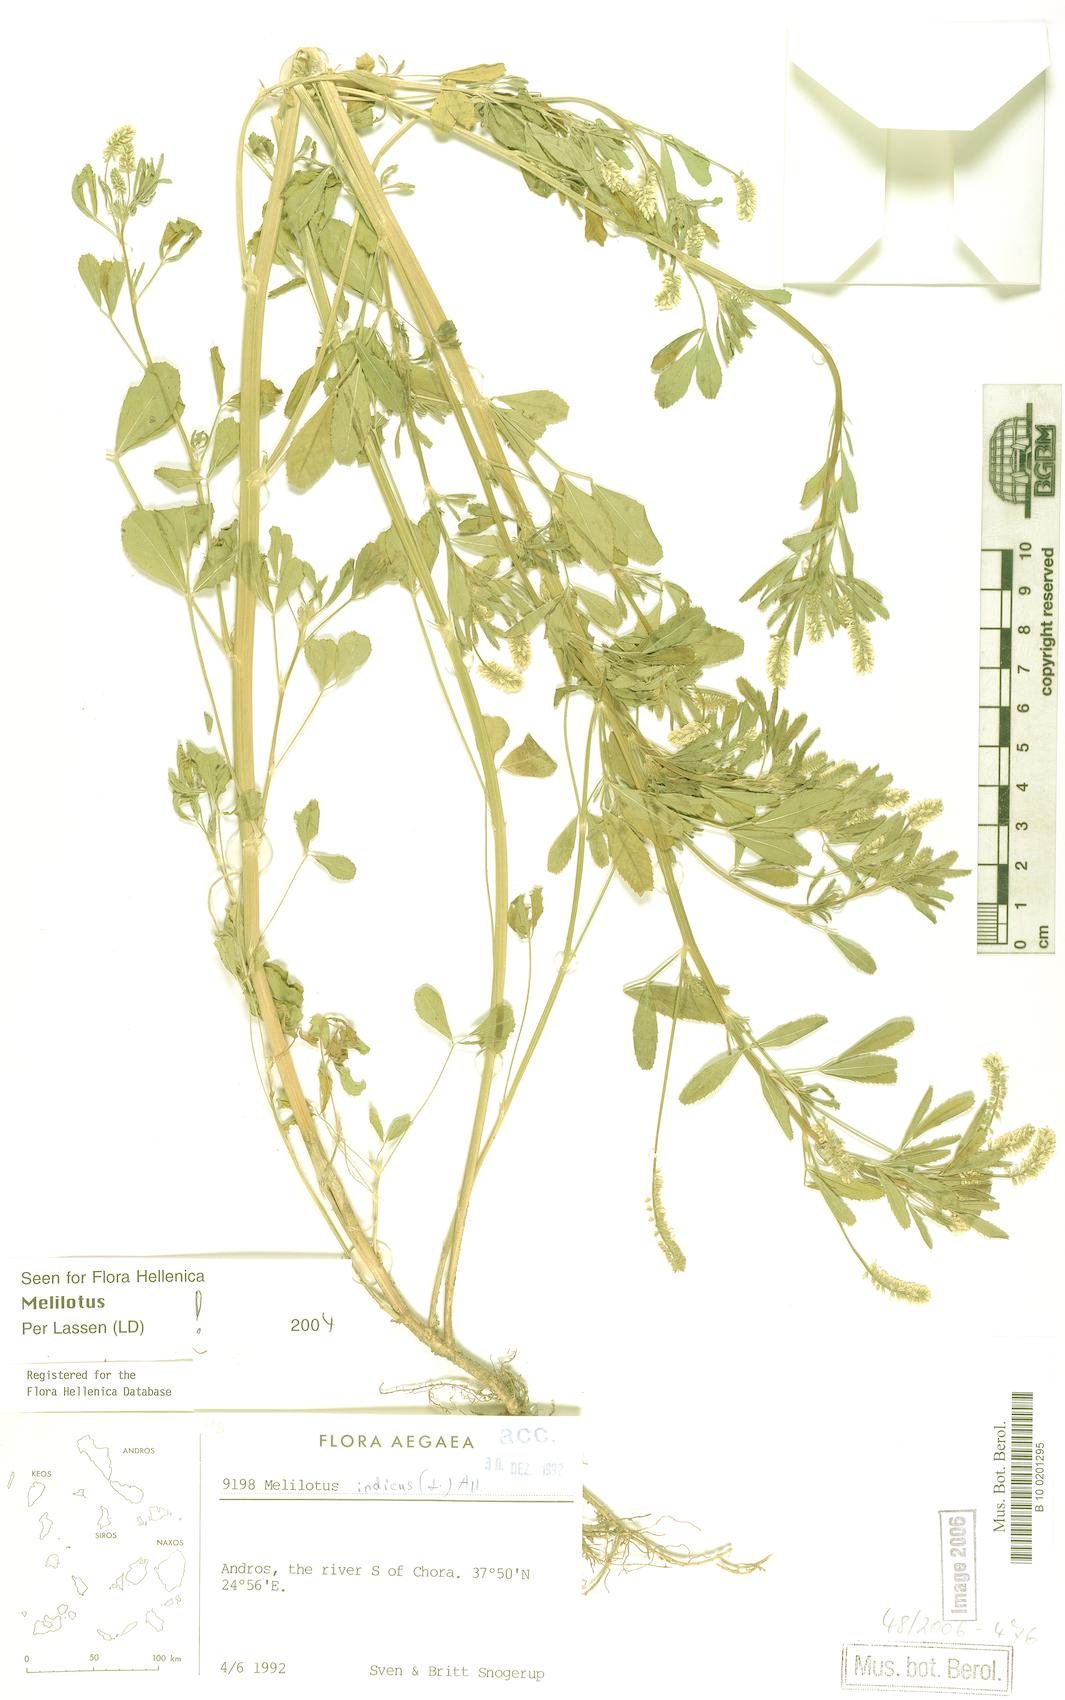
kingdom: Plantae
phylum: Tracheophyta
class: Magnoliopsida
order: Fabales
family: Fabaceae
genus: Melilotus
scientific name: Melilotus indicus
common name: Small melilot
